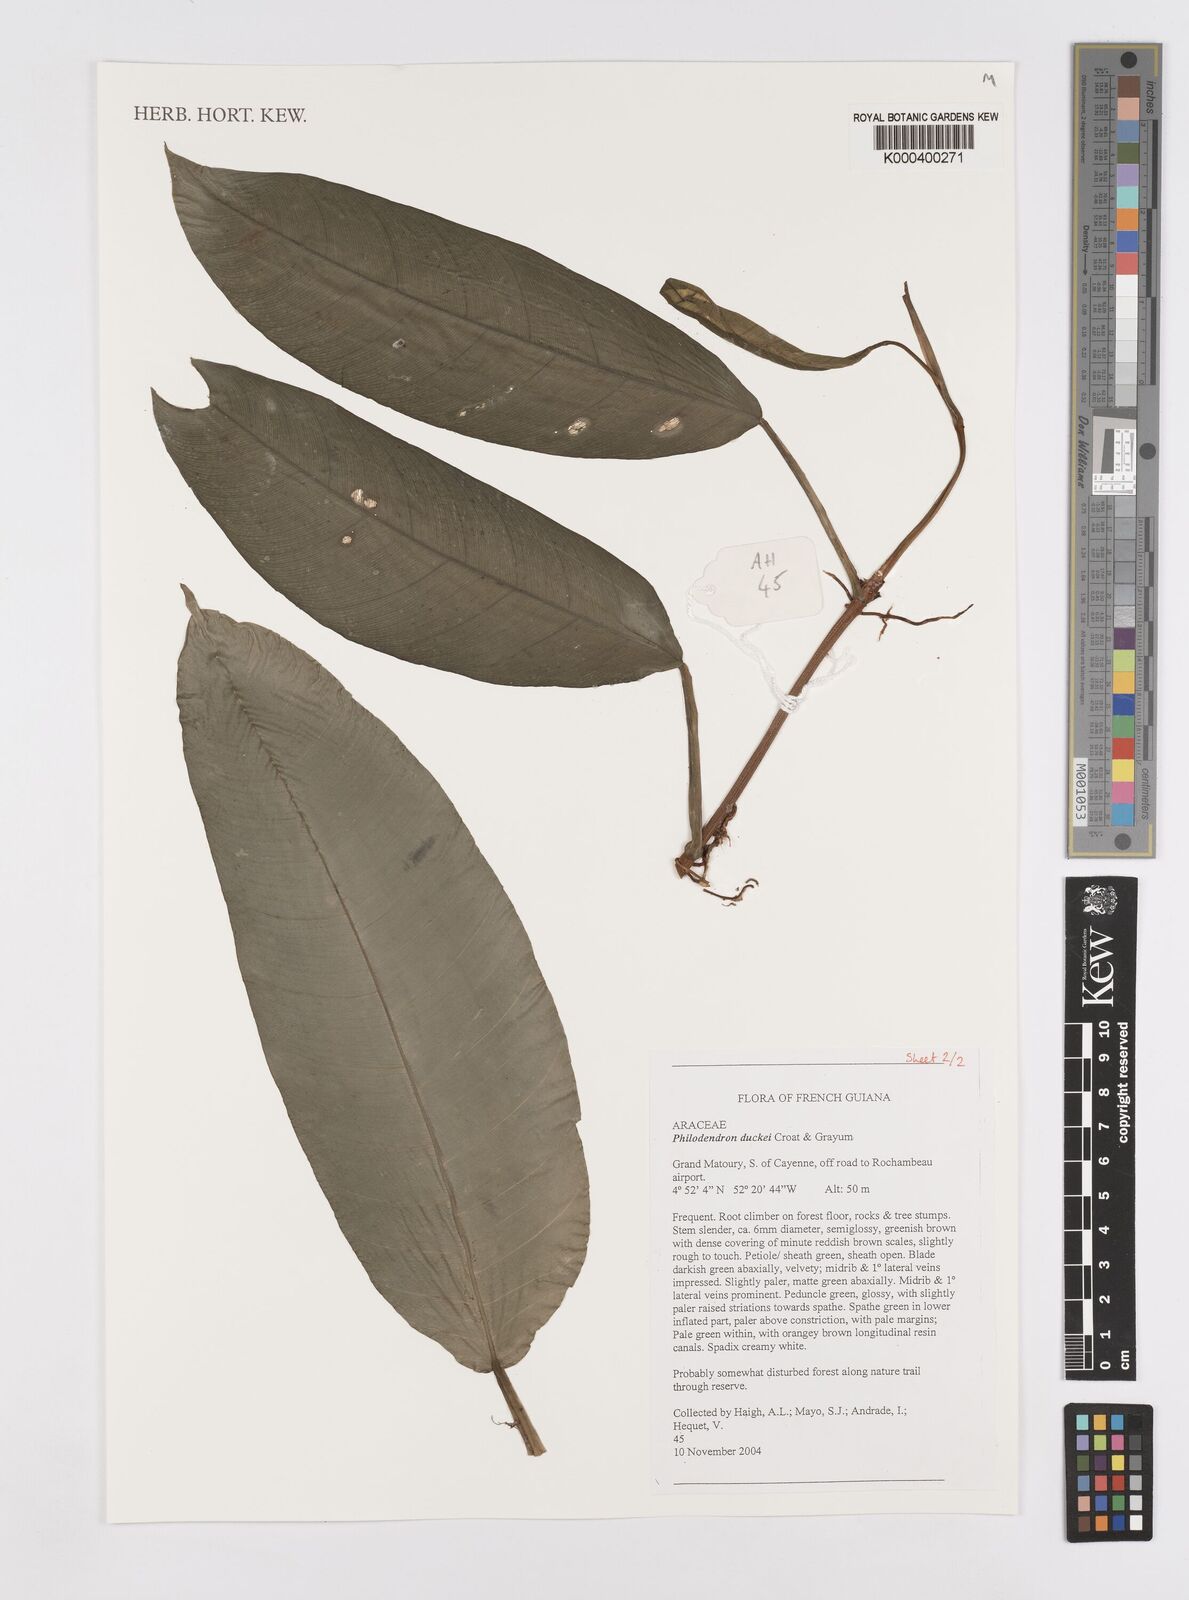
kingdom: Plantae
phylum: Tracheophyta
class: Liliopsida
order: Alismatales
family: Araceae
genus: Philodendron
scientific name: Philodendron duckei
